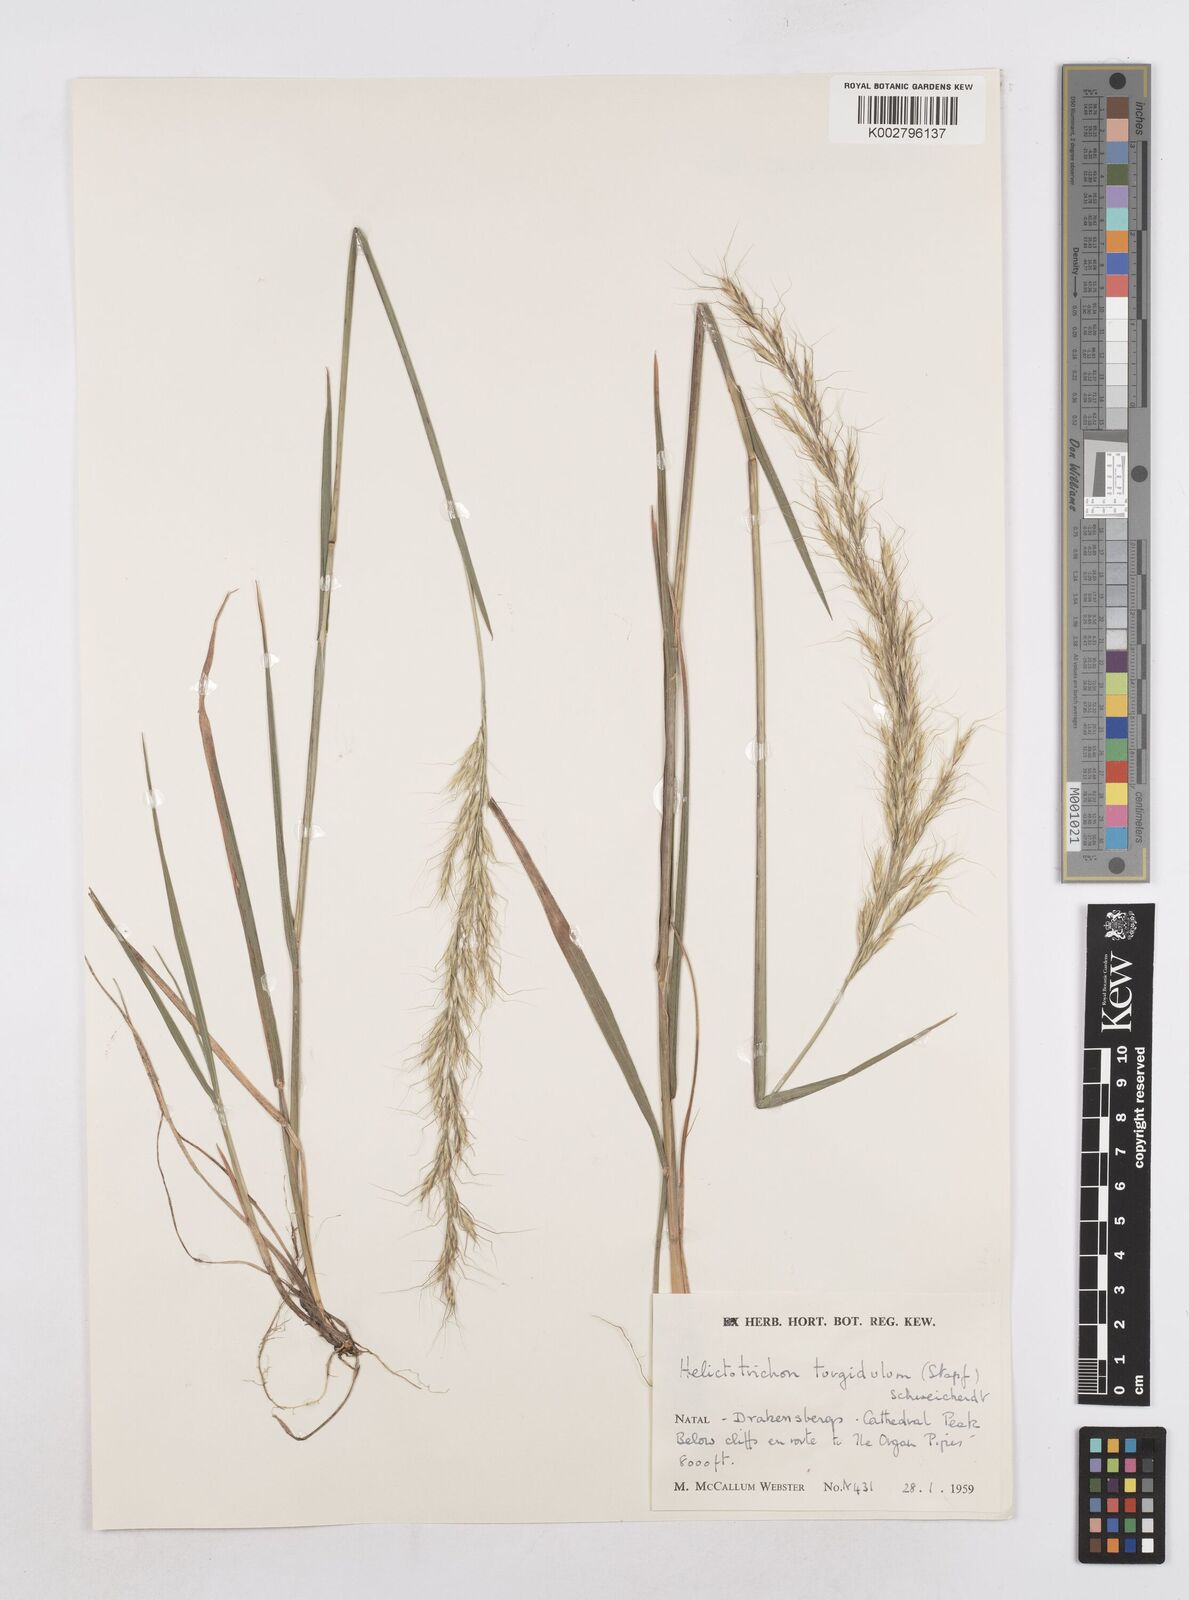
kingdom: Plantae
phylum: Tracheophyta
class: Liliopsida
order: Poales
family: Poaceae
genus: Trisetopsis
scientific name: Trisetopsis imberbis
